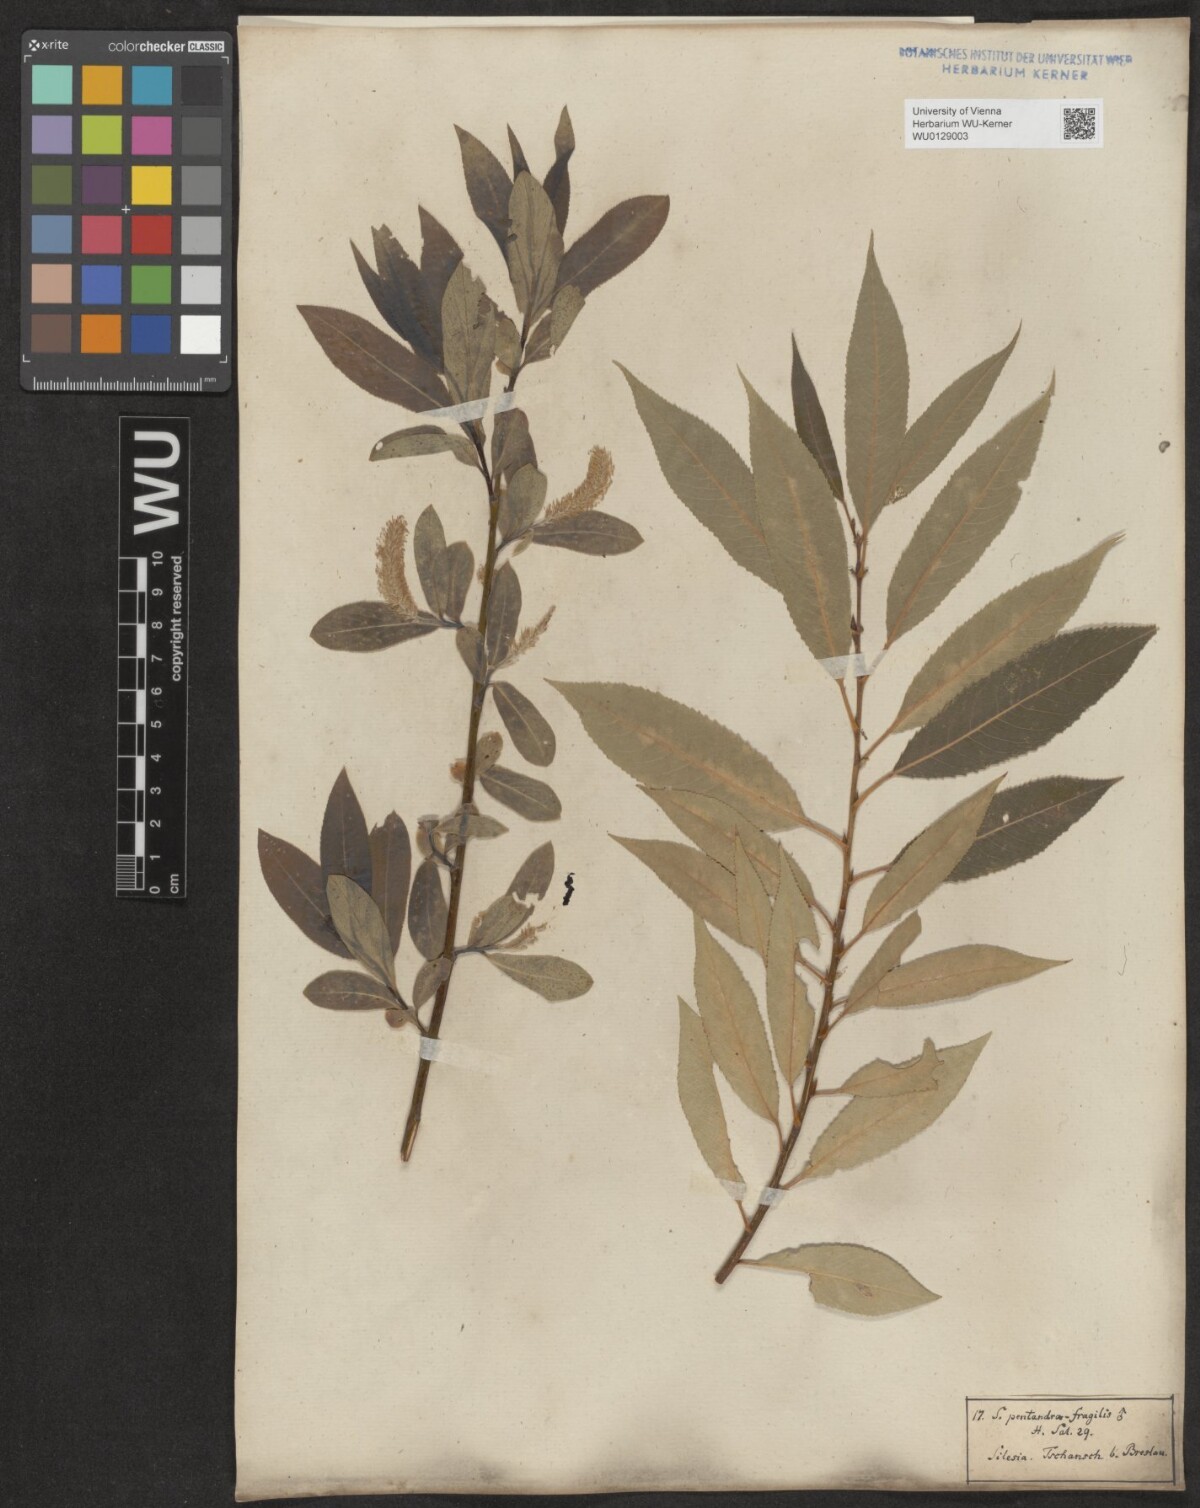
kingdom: Plantae
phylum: Tracheophyta
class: Magnoliopsida
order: Malpighiales
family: Salicaceae
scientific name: Salicaceae
